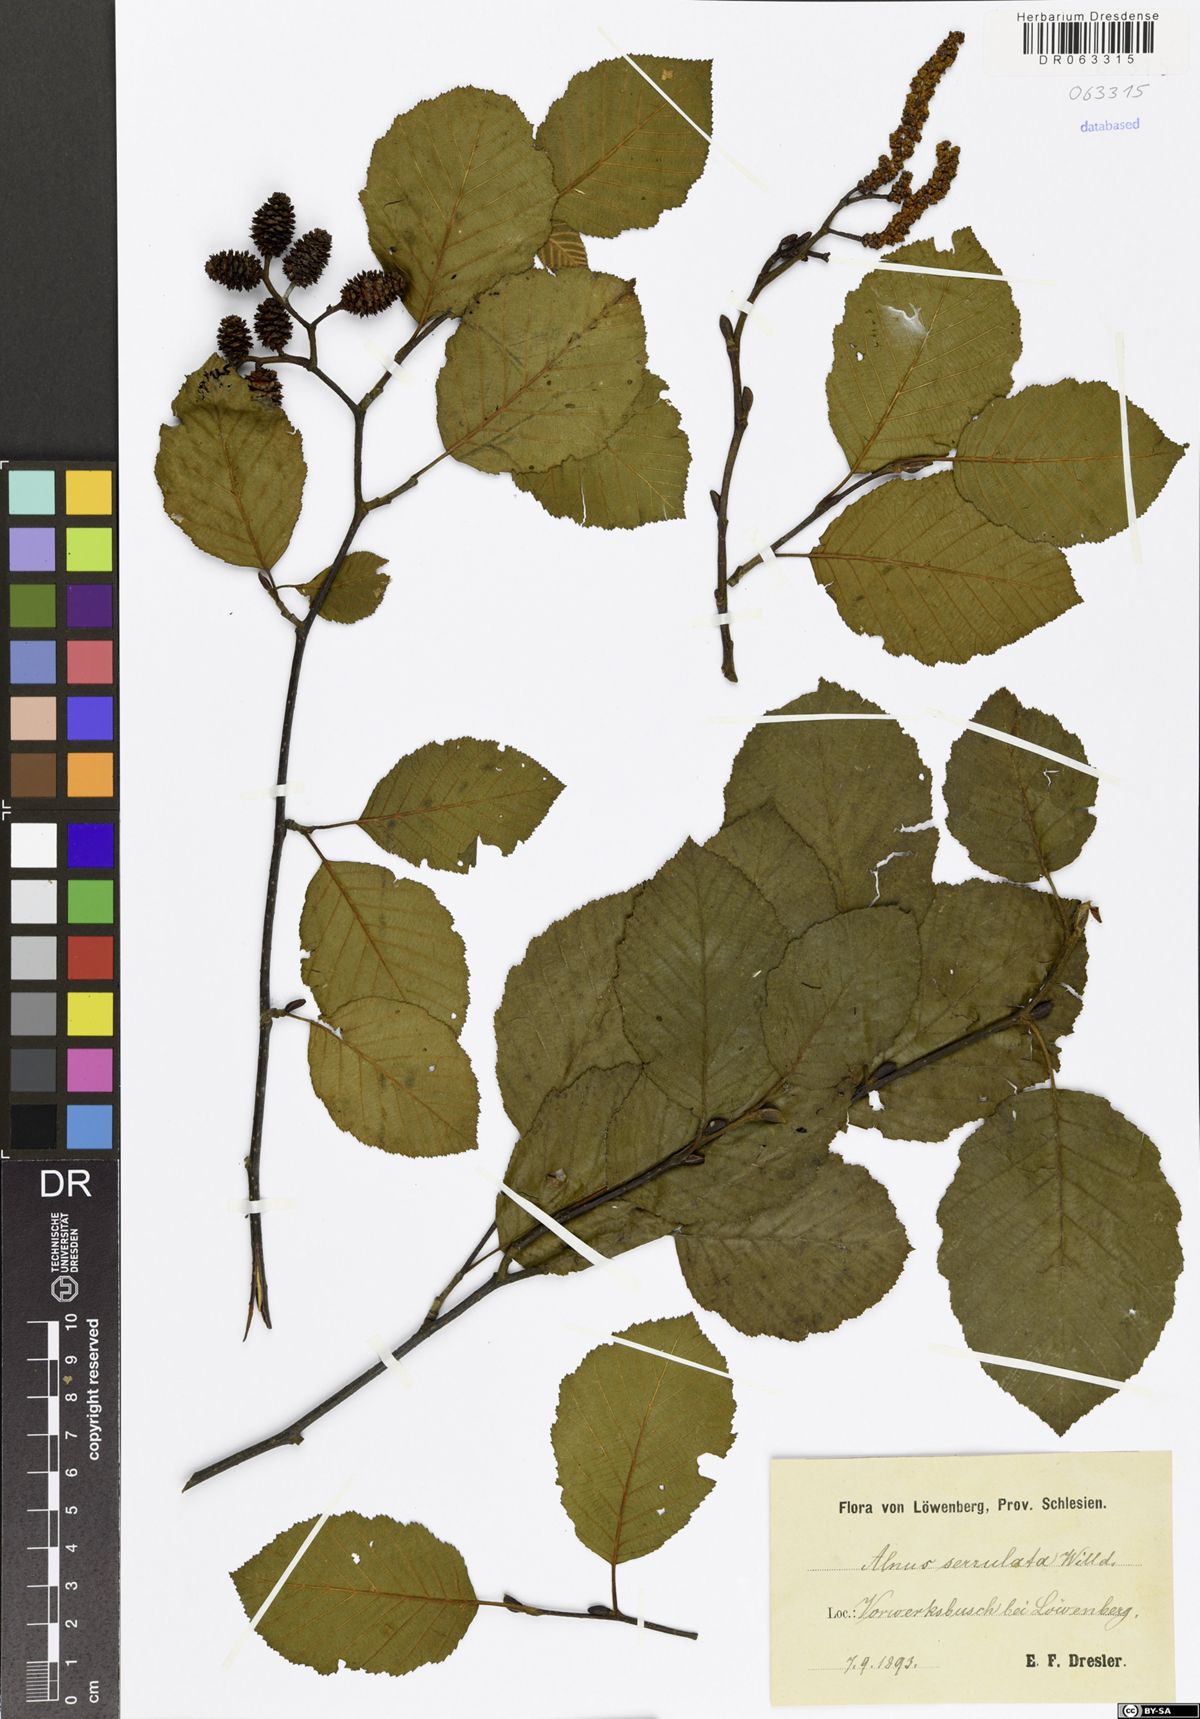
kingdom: Plantae
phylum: Tracheophyta
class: Magnoliopsida
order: Fagales
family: Betulaceae
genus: Alnus
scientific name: Alnus serrulata
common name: Hazel alder
